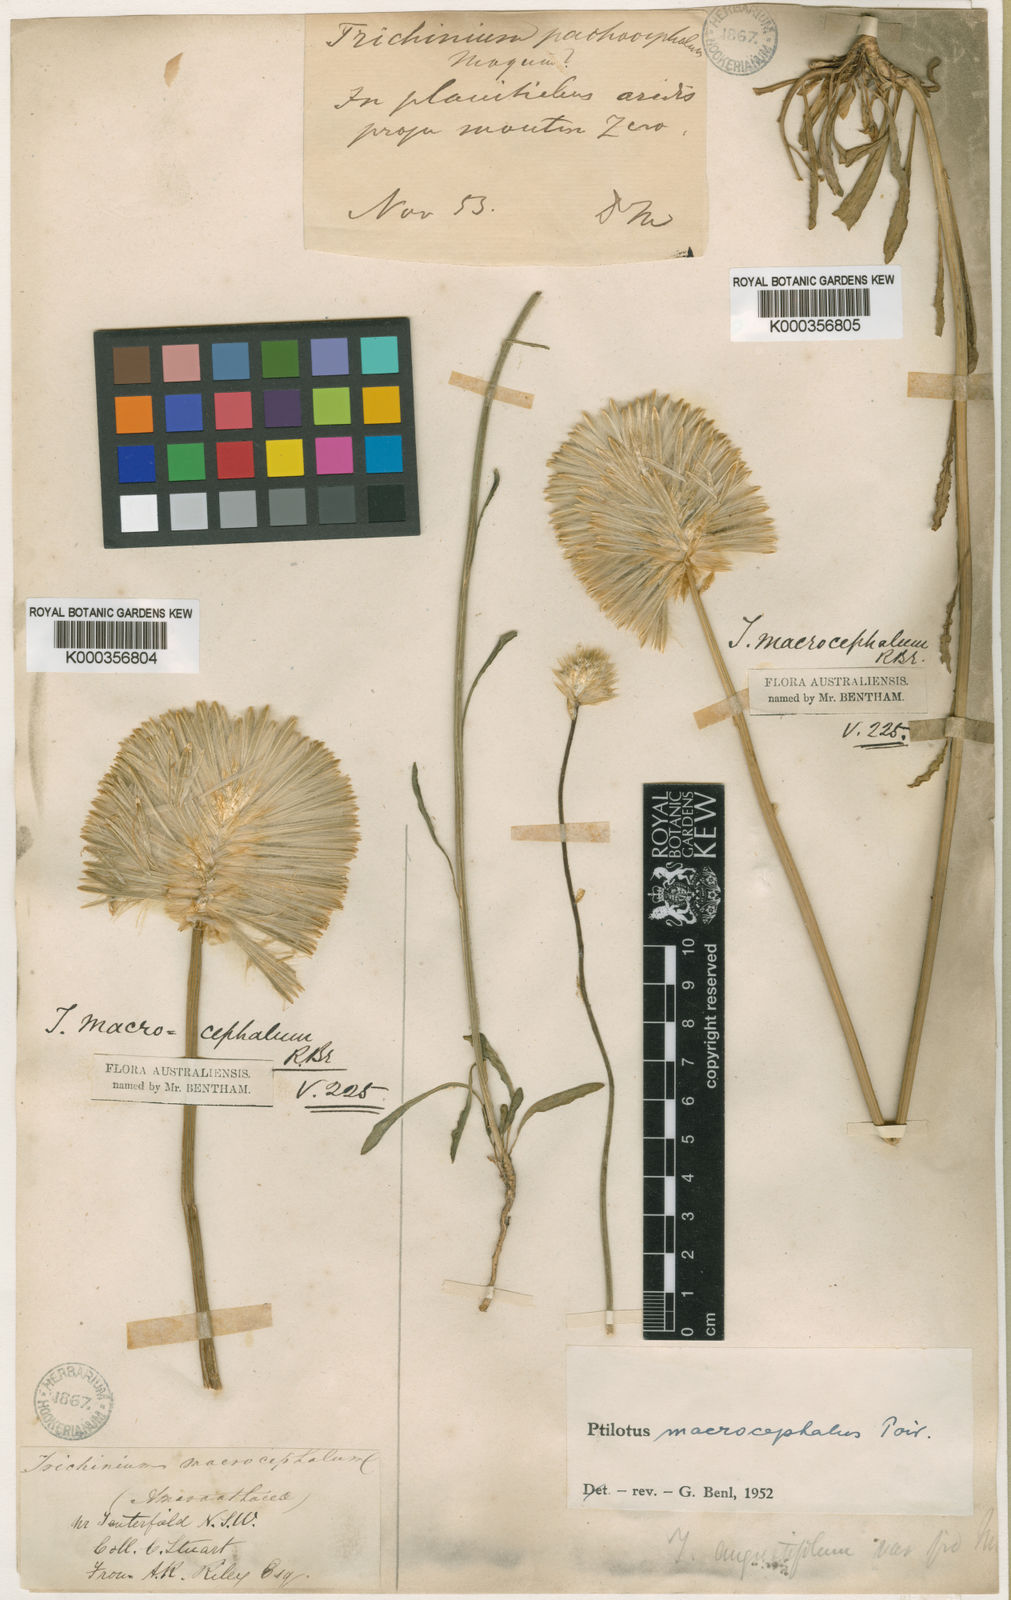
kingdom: Plantae
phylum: Tracheophyta
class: Magnoliopsida
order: Caryophyllales
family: Amaranthaceae
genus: Ptilotus
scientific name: Ptilotus macrocephalus
